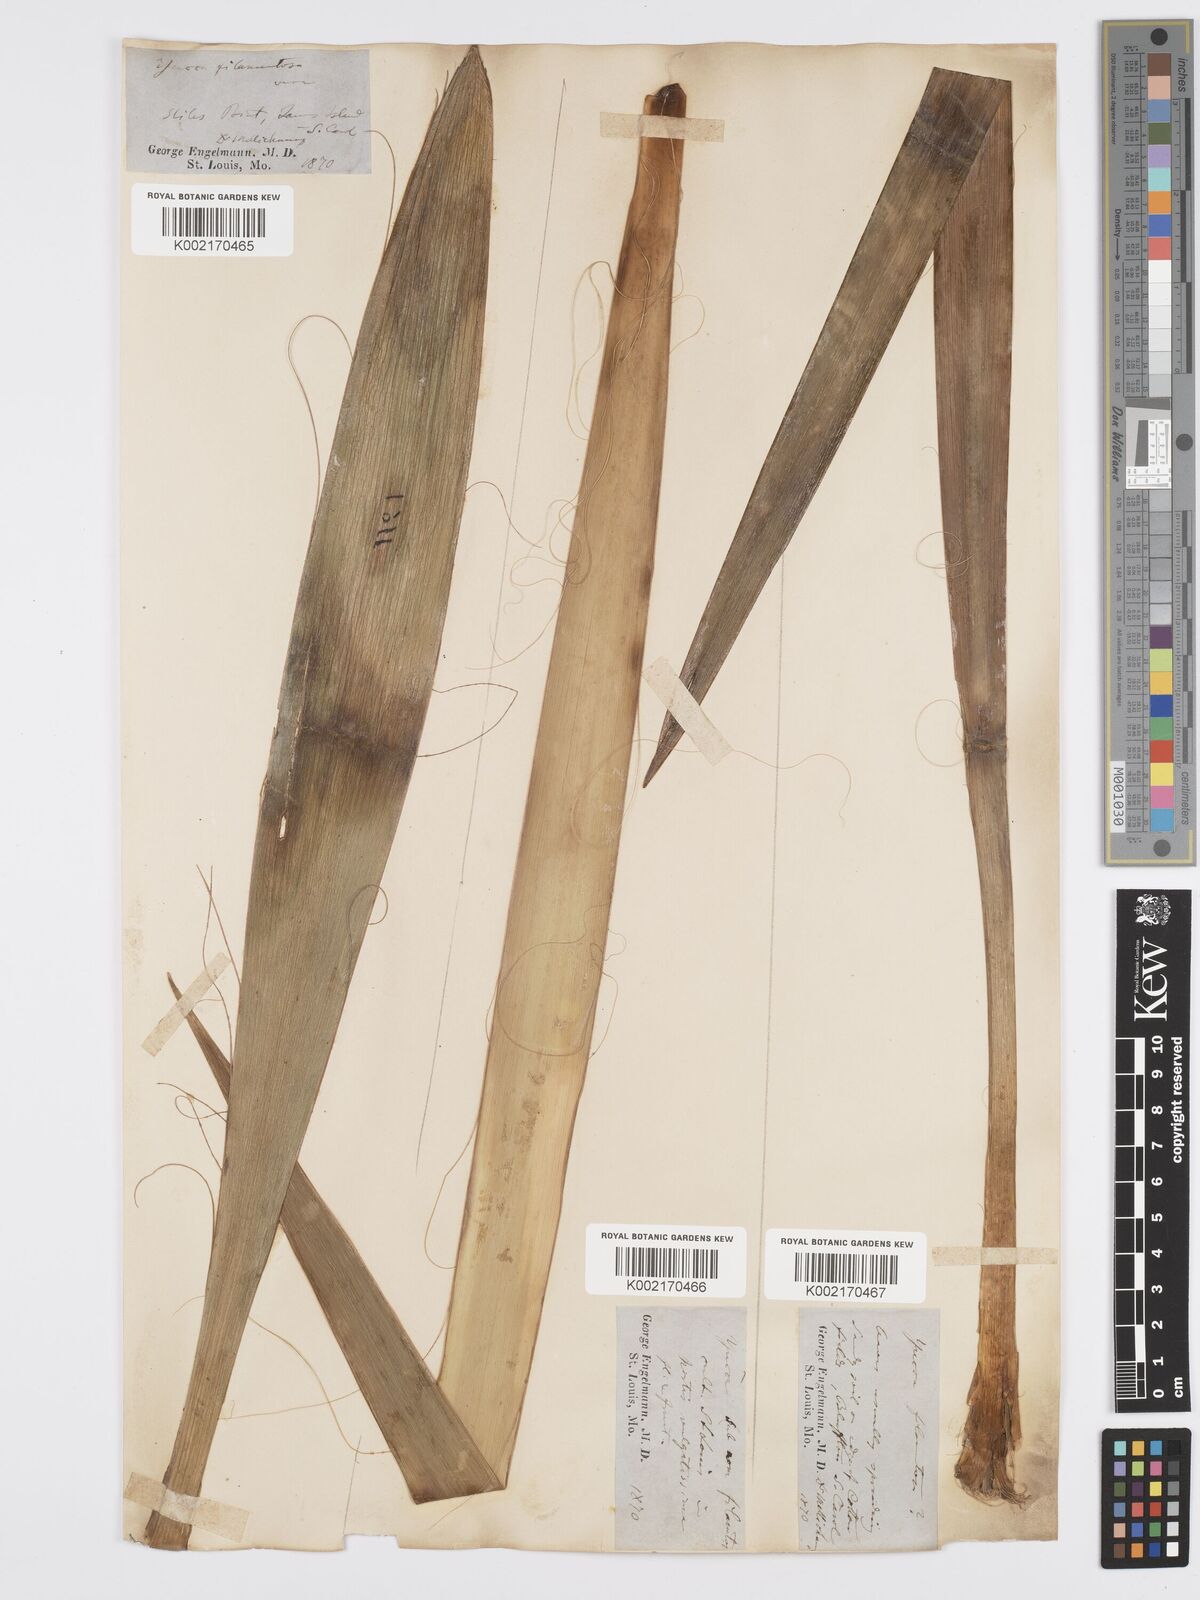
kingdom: Plantae
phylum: Tracheophyta
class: Liliopsida
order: Asparagales
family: Asparagaceae
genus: Yucca
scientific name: Yucca filamentosa
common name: Adam's-needle
